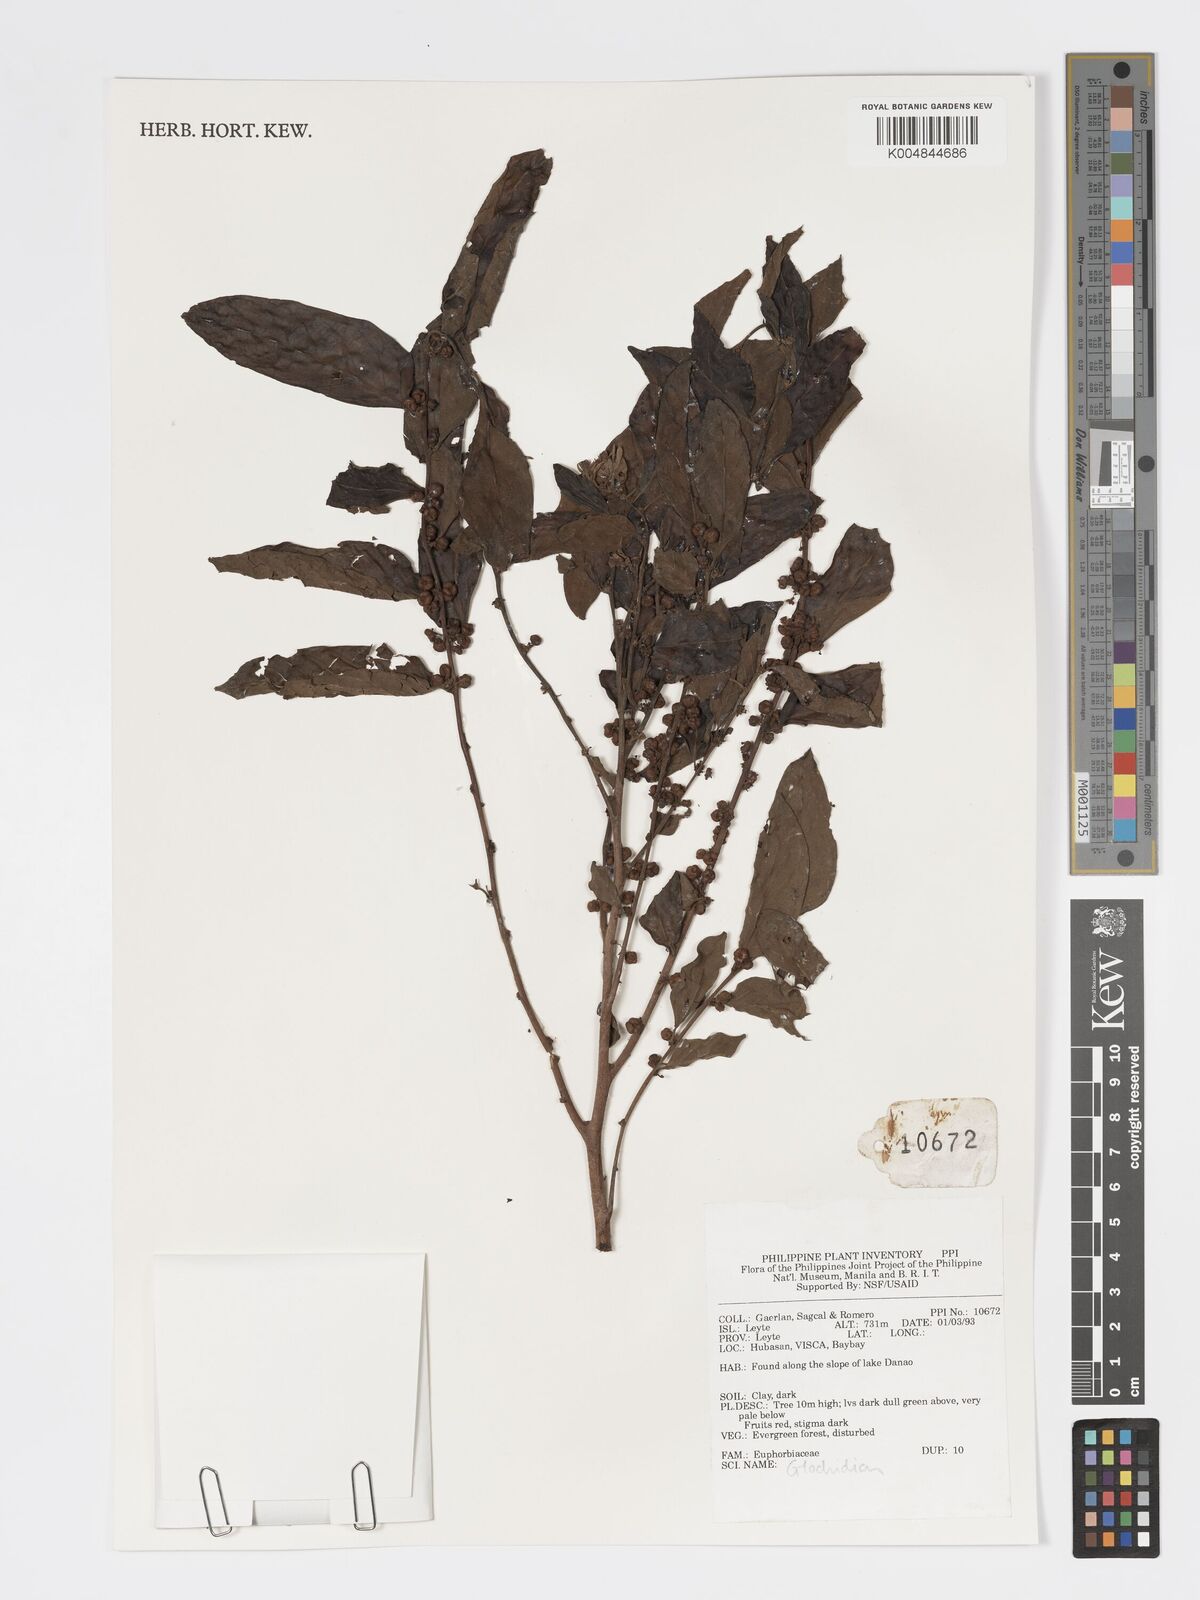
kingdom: Plantae
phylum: Tracheophyta
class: Magnoliopsida
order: Malpighiales
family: Phyllanthaceae
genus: Glochidion
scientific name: Glochidion
